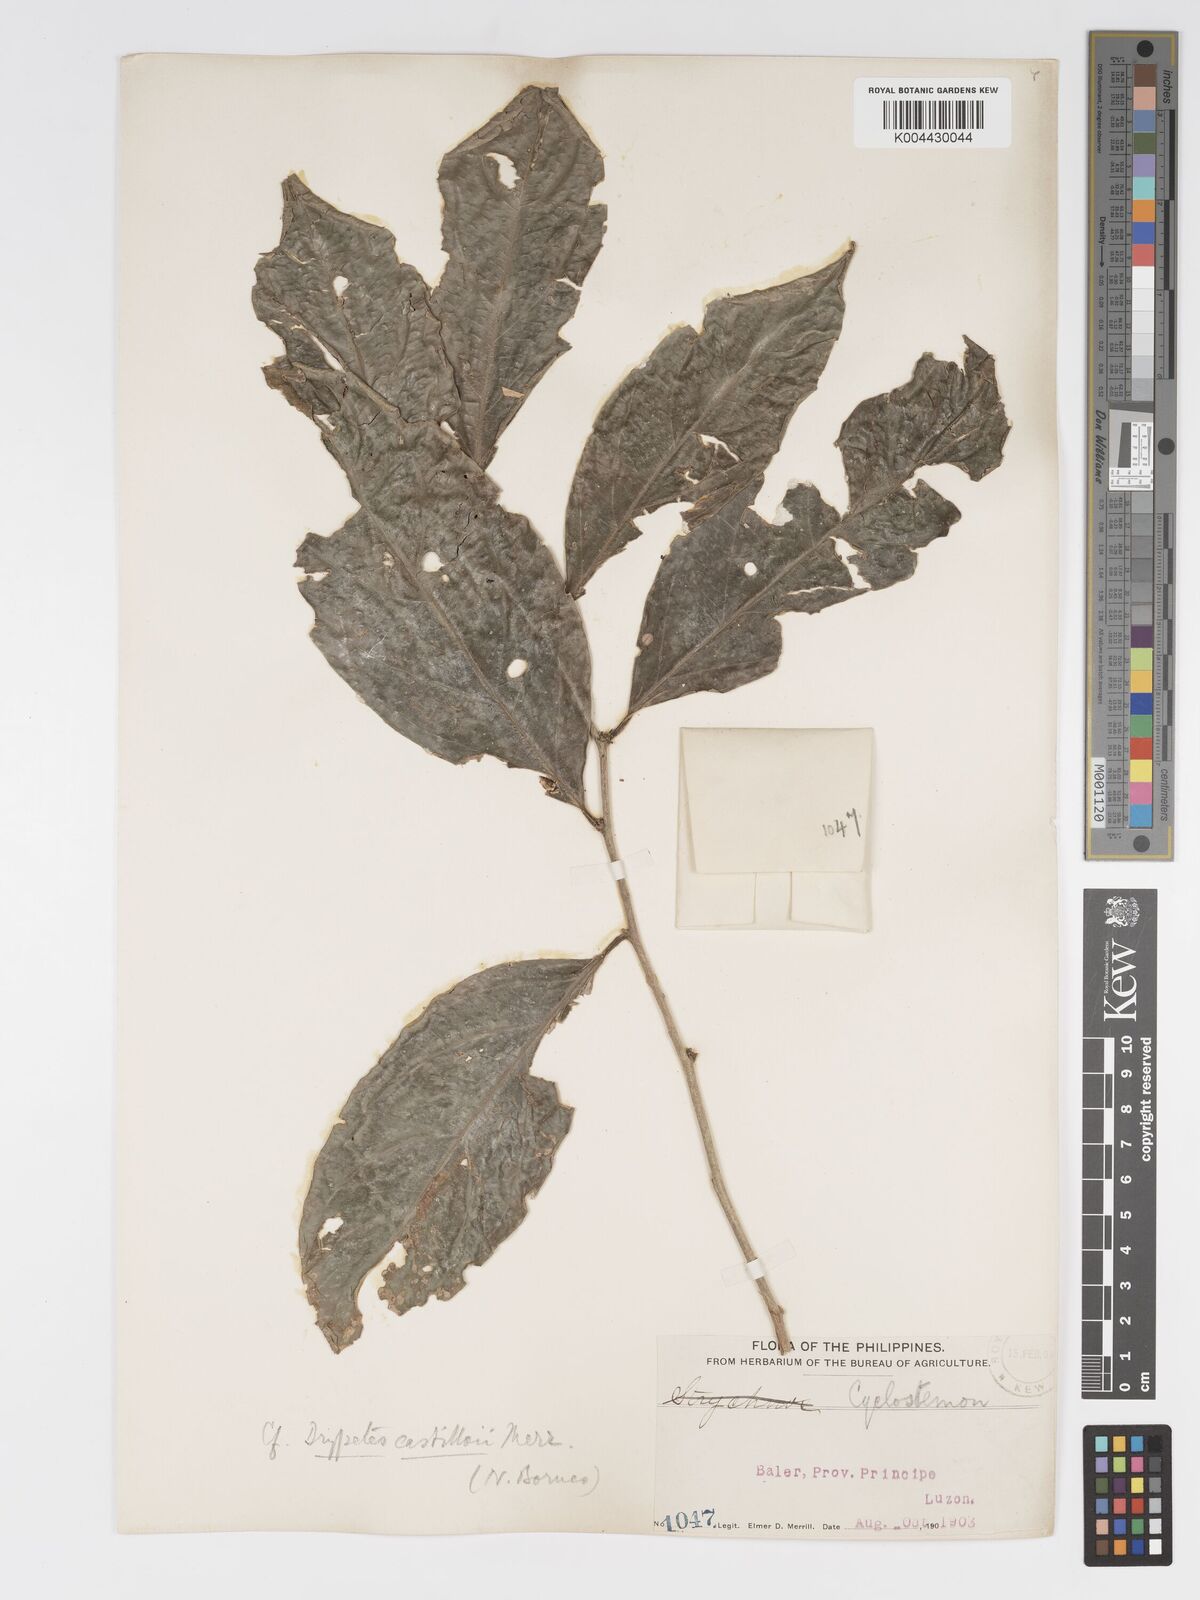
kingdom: Plantae
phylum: Tracheophyta
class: Magnoliopsida
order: Malpighiales
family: Putranjivaceae
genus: Drypetes
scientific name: Drypetes castilloi
